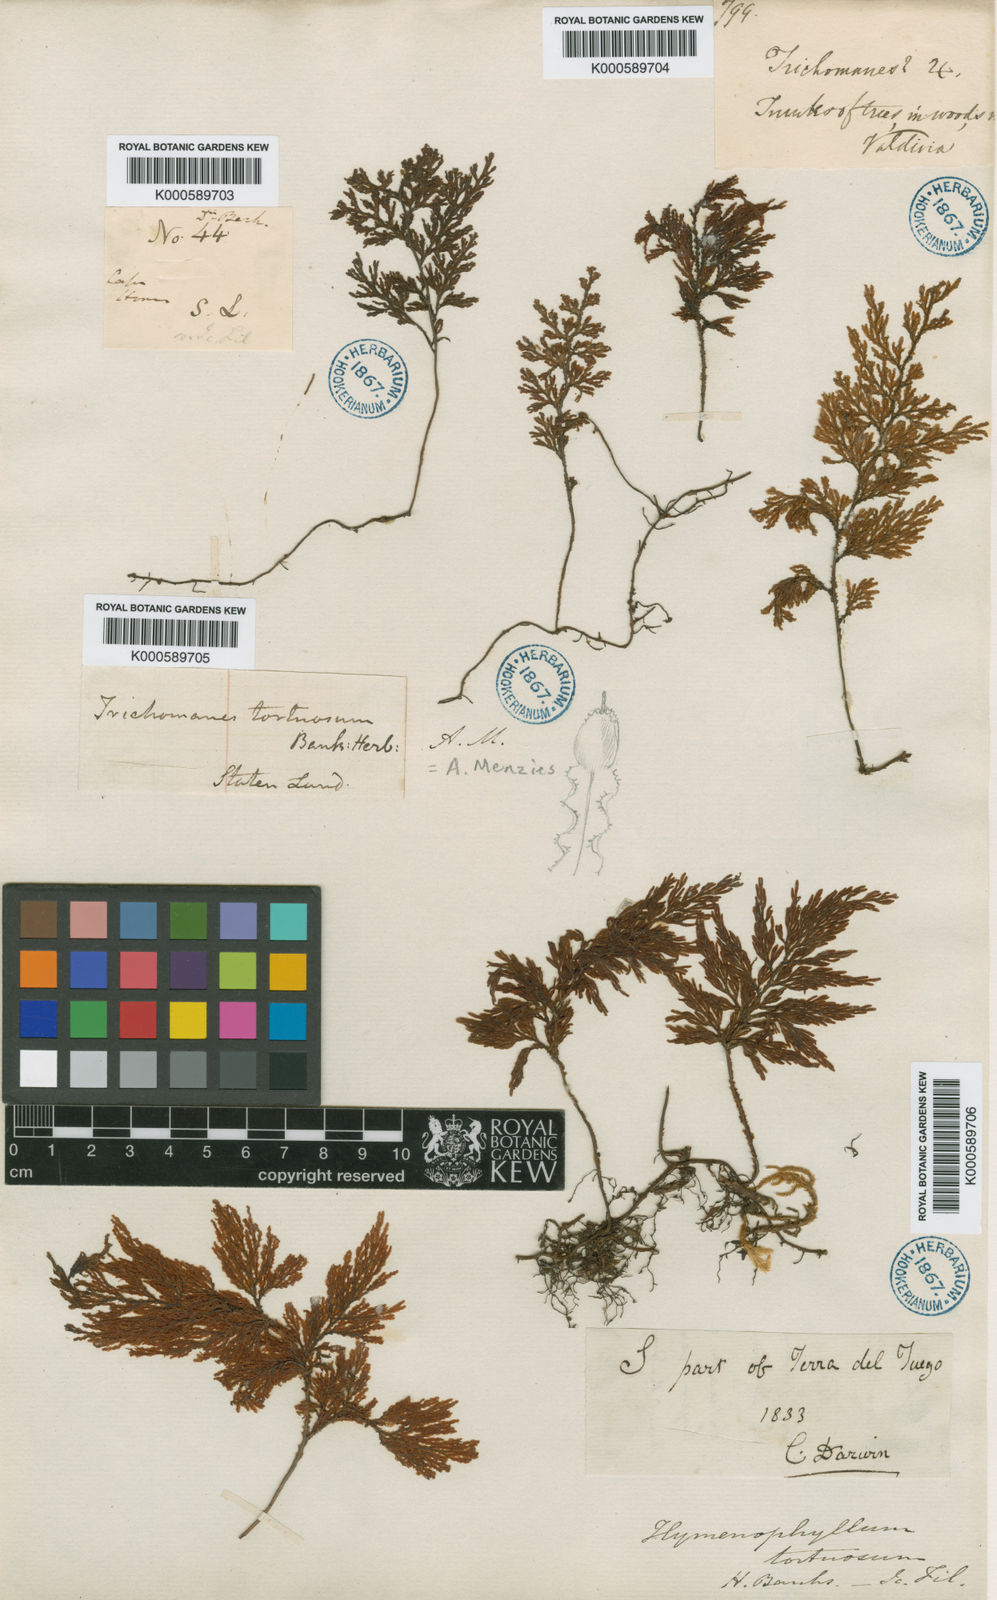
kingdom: Plantae
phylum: Tracheophyta
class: Polypodiopsida
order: Hymenophyllales
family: Hymenophyllaceae
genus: Hymenophyllum
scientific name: Hymenophyllum tortuosum
